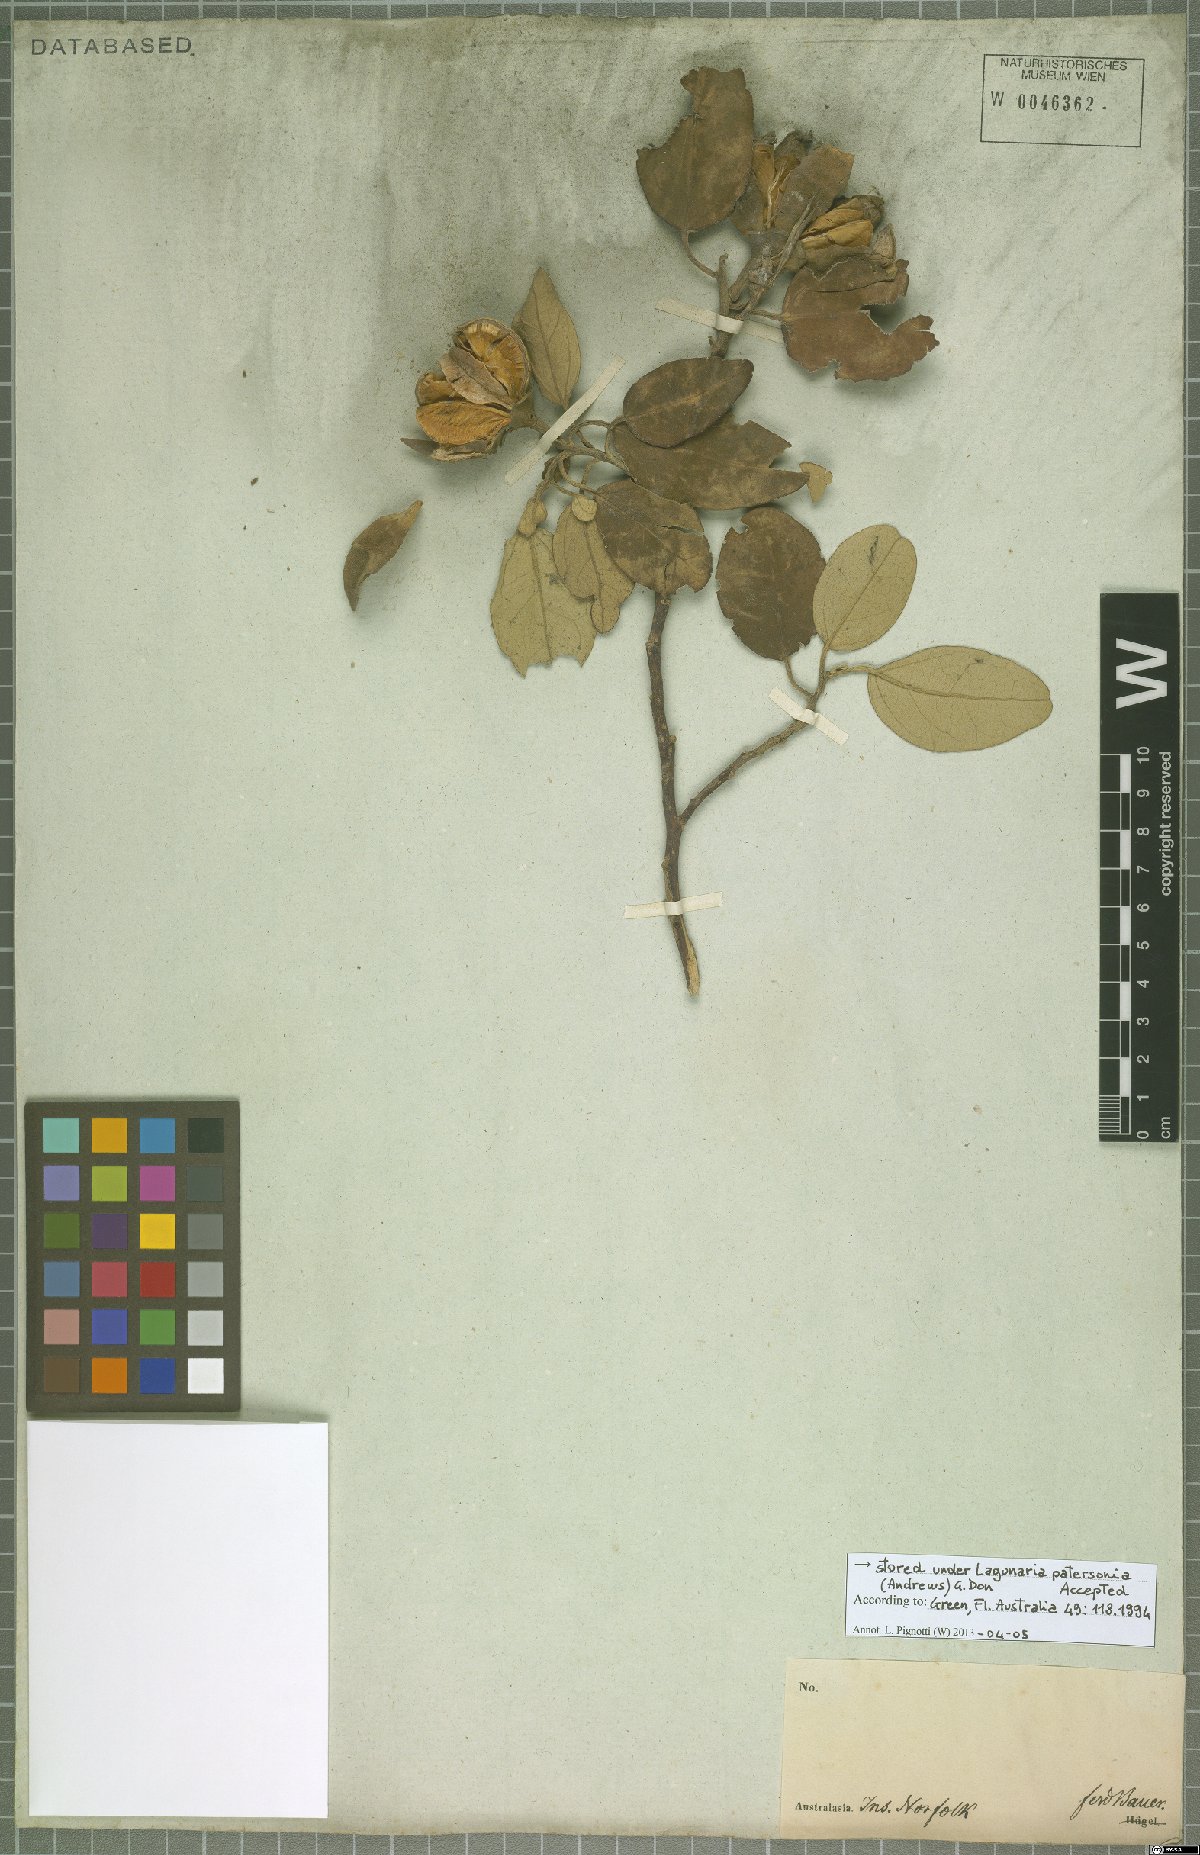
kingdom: Plantae
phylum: Tracheophyta
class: Magnoliopsida
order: Malvales
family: Malvaceae
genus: Lagunaria
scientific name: Lagunaria patersonia
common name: Cow itch tree
